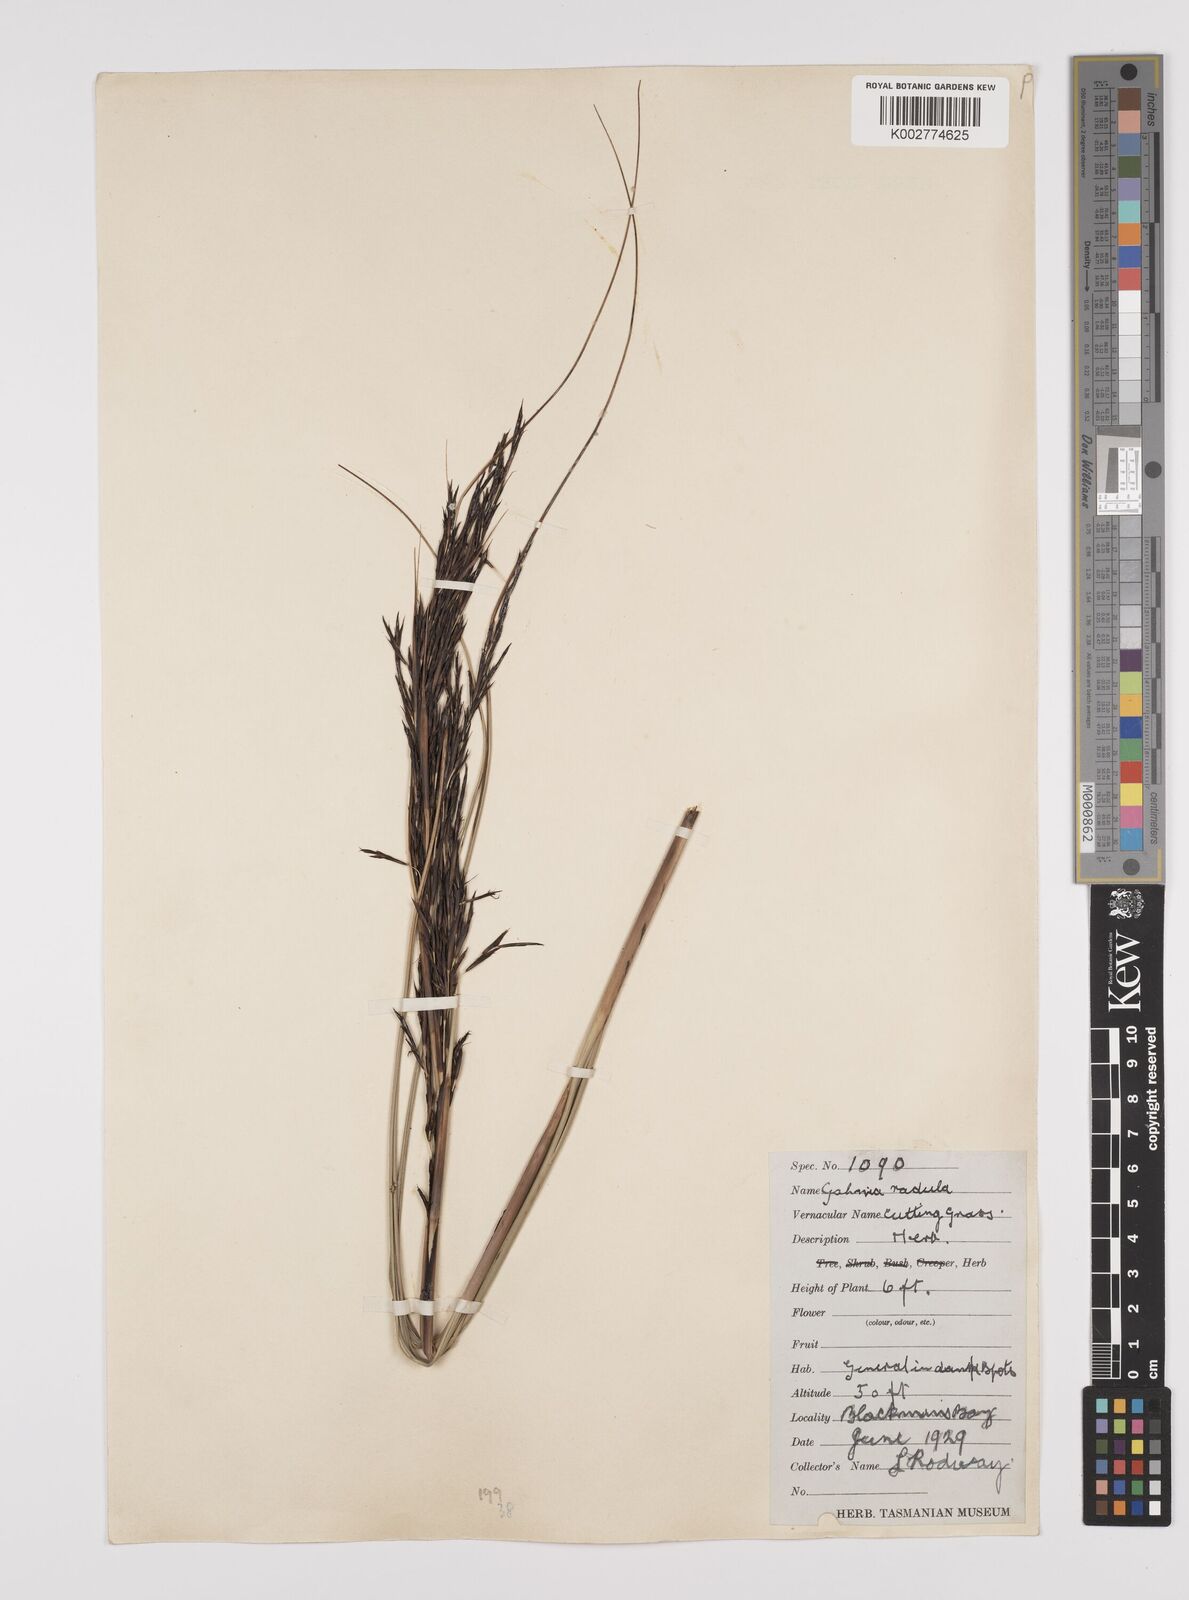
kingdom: Plantae
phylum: Tracheophyta
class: Liliopsida
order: Poales
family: Cyperaceae
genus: Gahnia
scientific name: Gahnia radula
